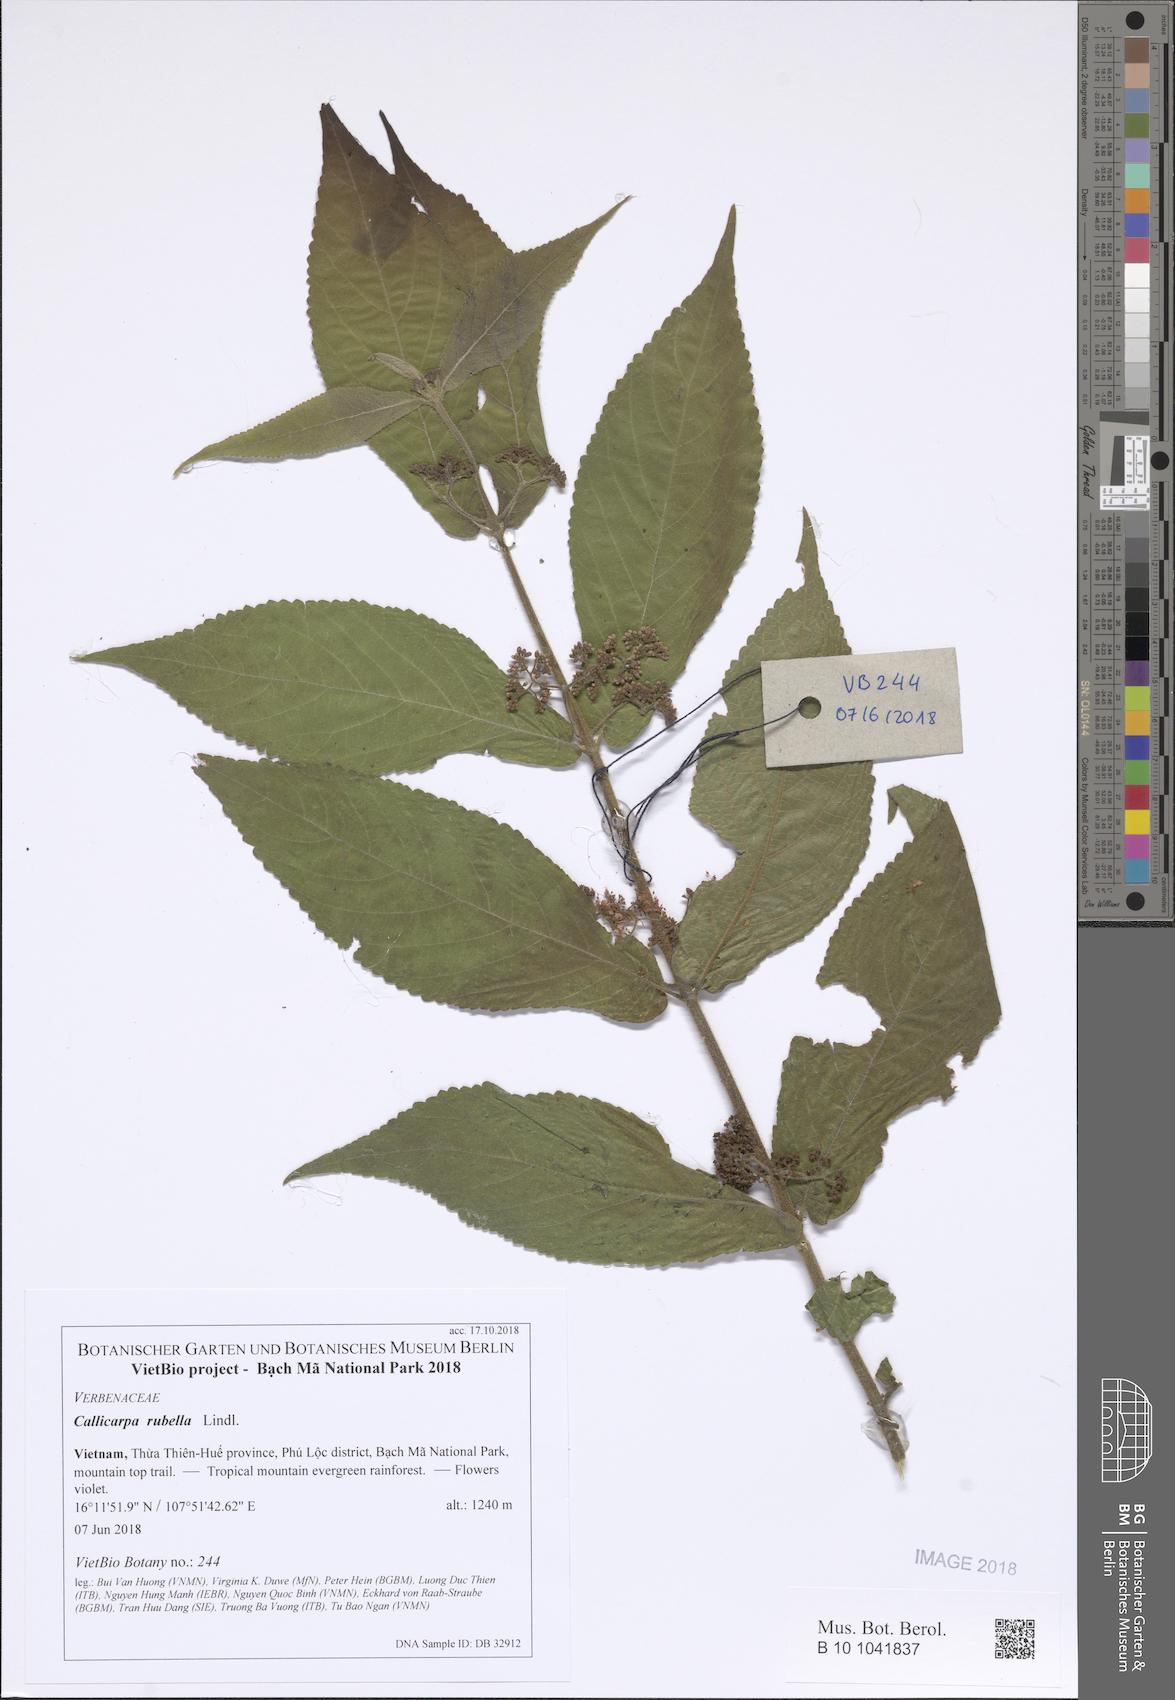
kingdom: Plantae
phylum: Tracheophyta
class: Magnoliopsida
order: Lamiales
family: Lamiaceae
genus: Callicarpa
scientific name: Callicarpa rubella
